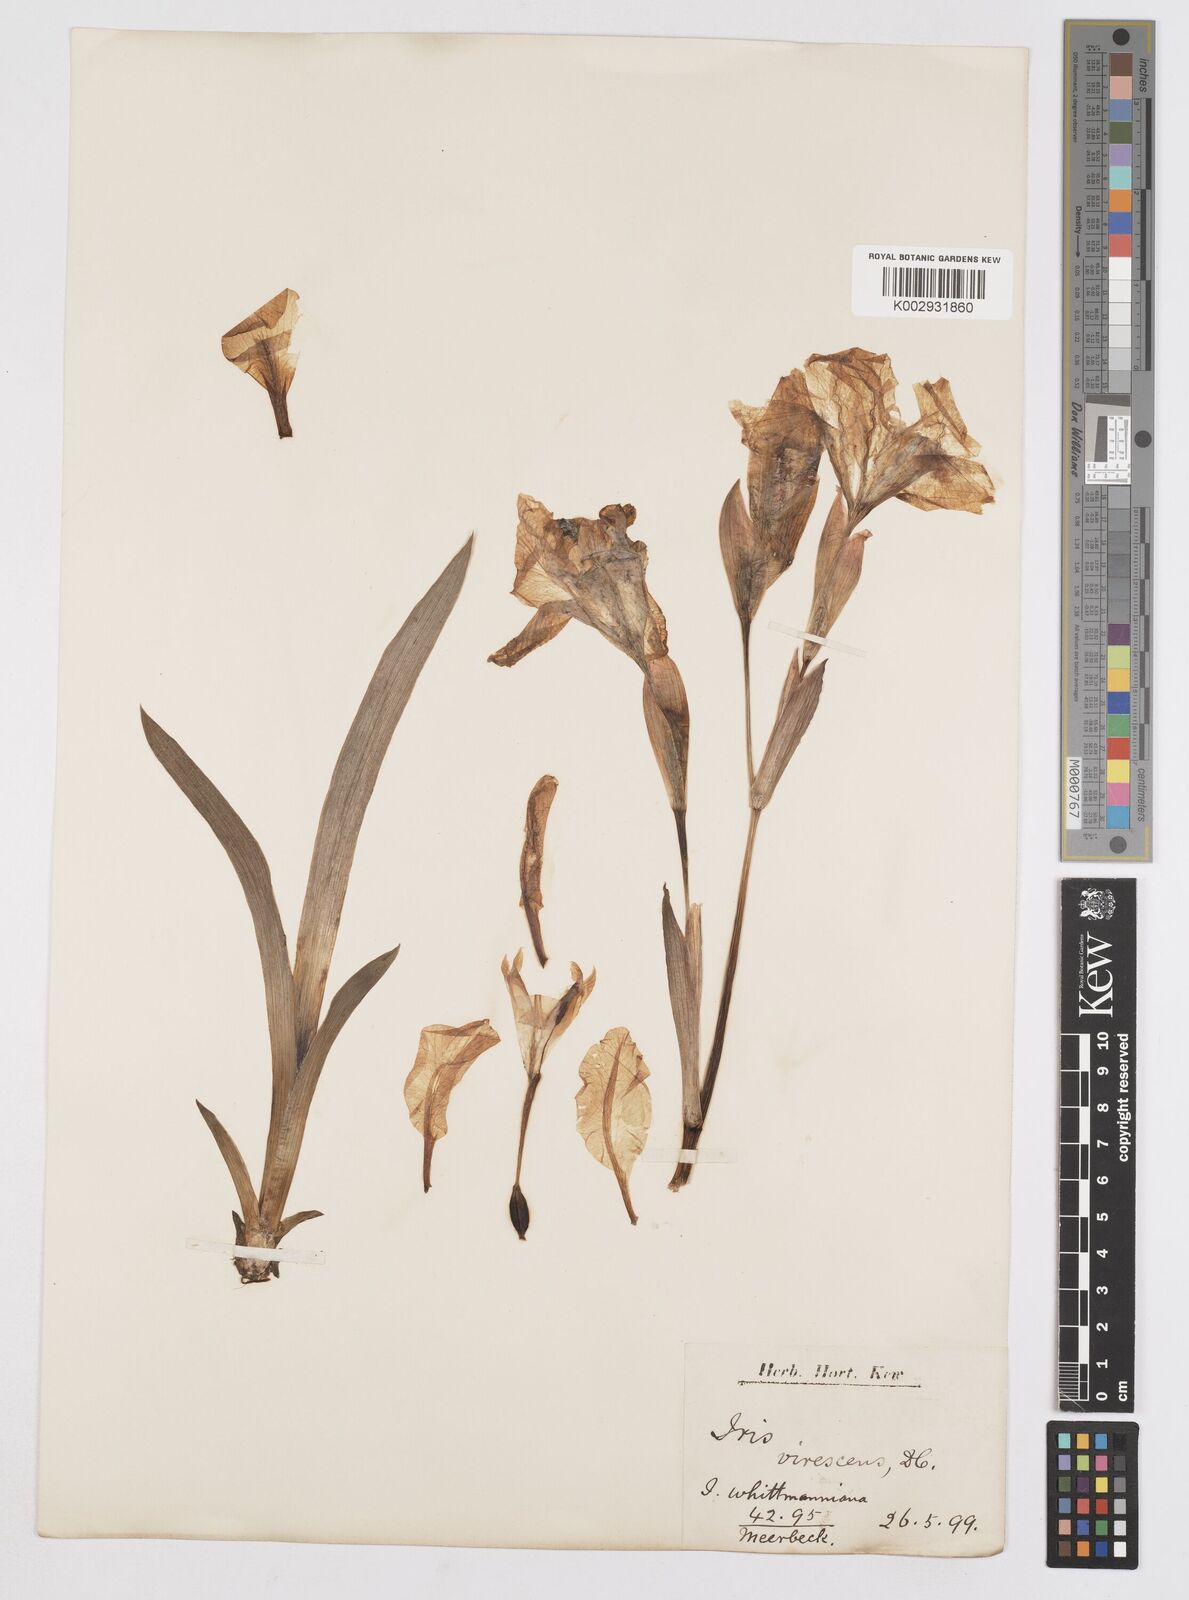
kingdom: Plantae
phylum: Tracheophyta
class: Liliopsida
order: Asparagales
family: Iridaceae
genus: Iris
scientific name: Iris lutescens
